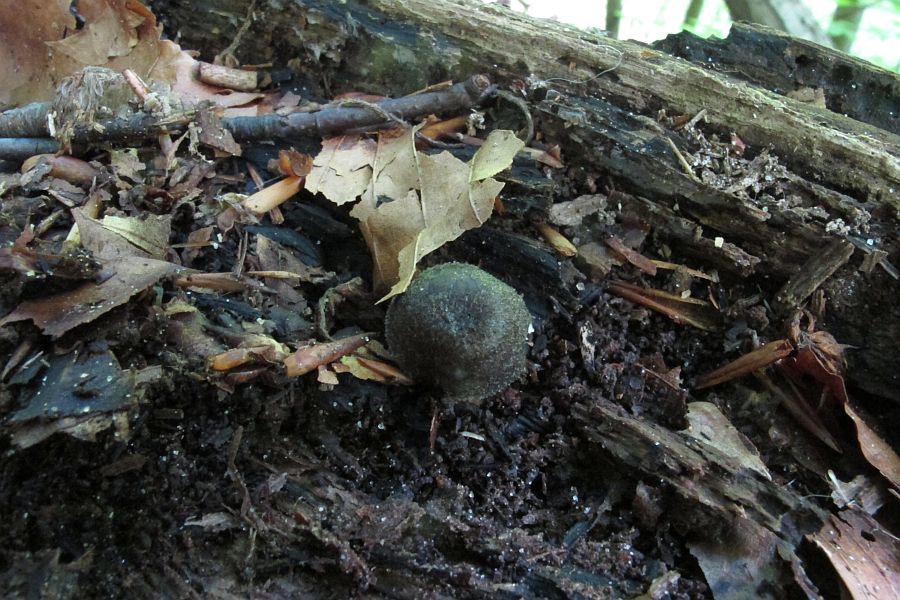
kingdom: Fungi
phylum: Basidiomycota
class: Agaricomycetes
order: Agaricales
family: Pluteaceae
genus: Pluteus
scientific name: Pluteus salicinus
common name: stiv skærmhat
